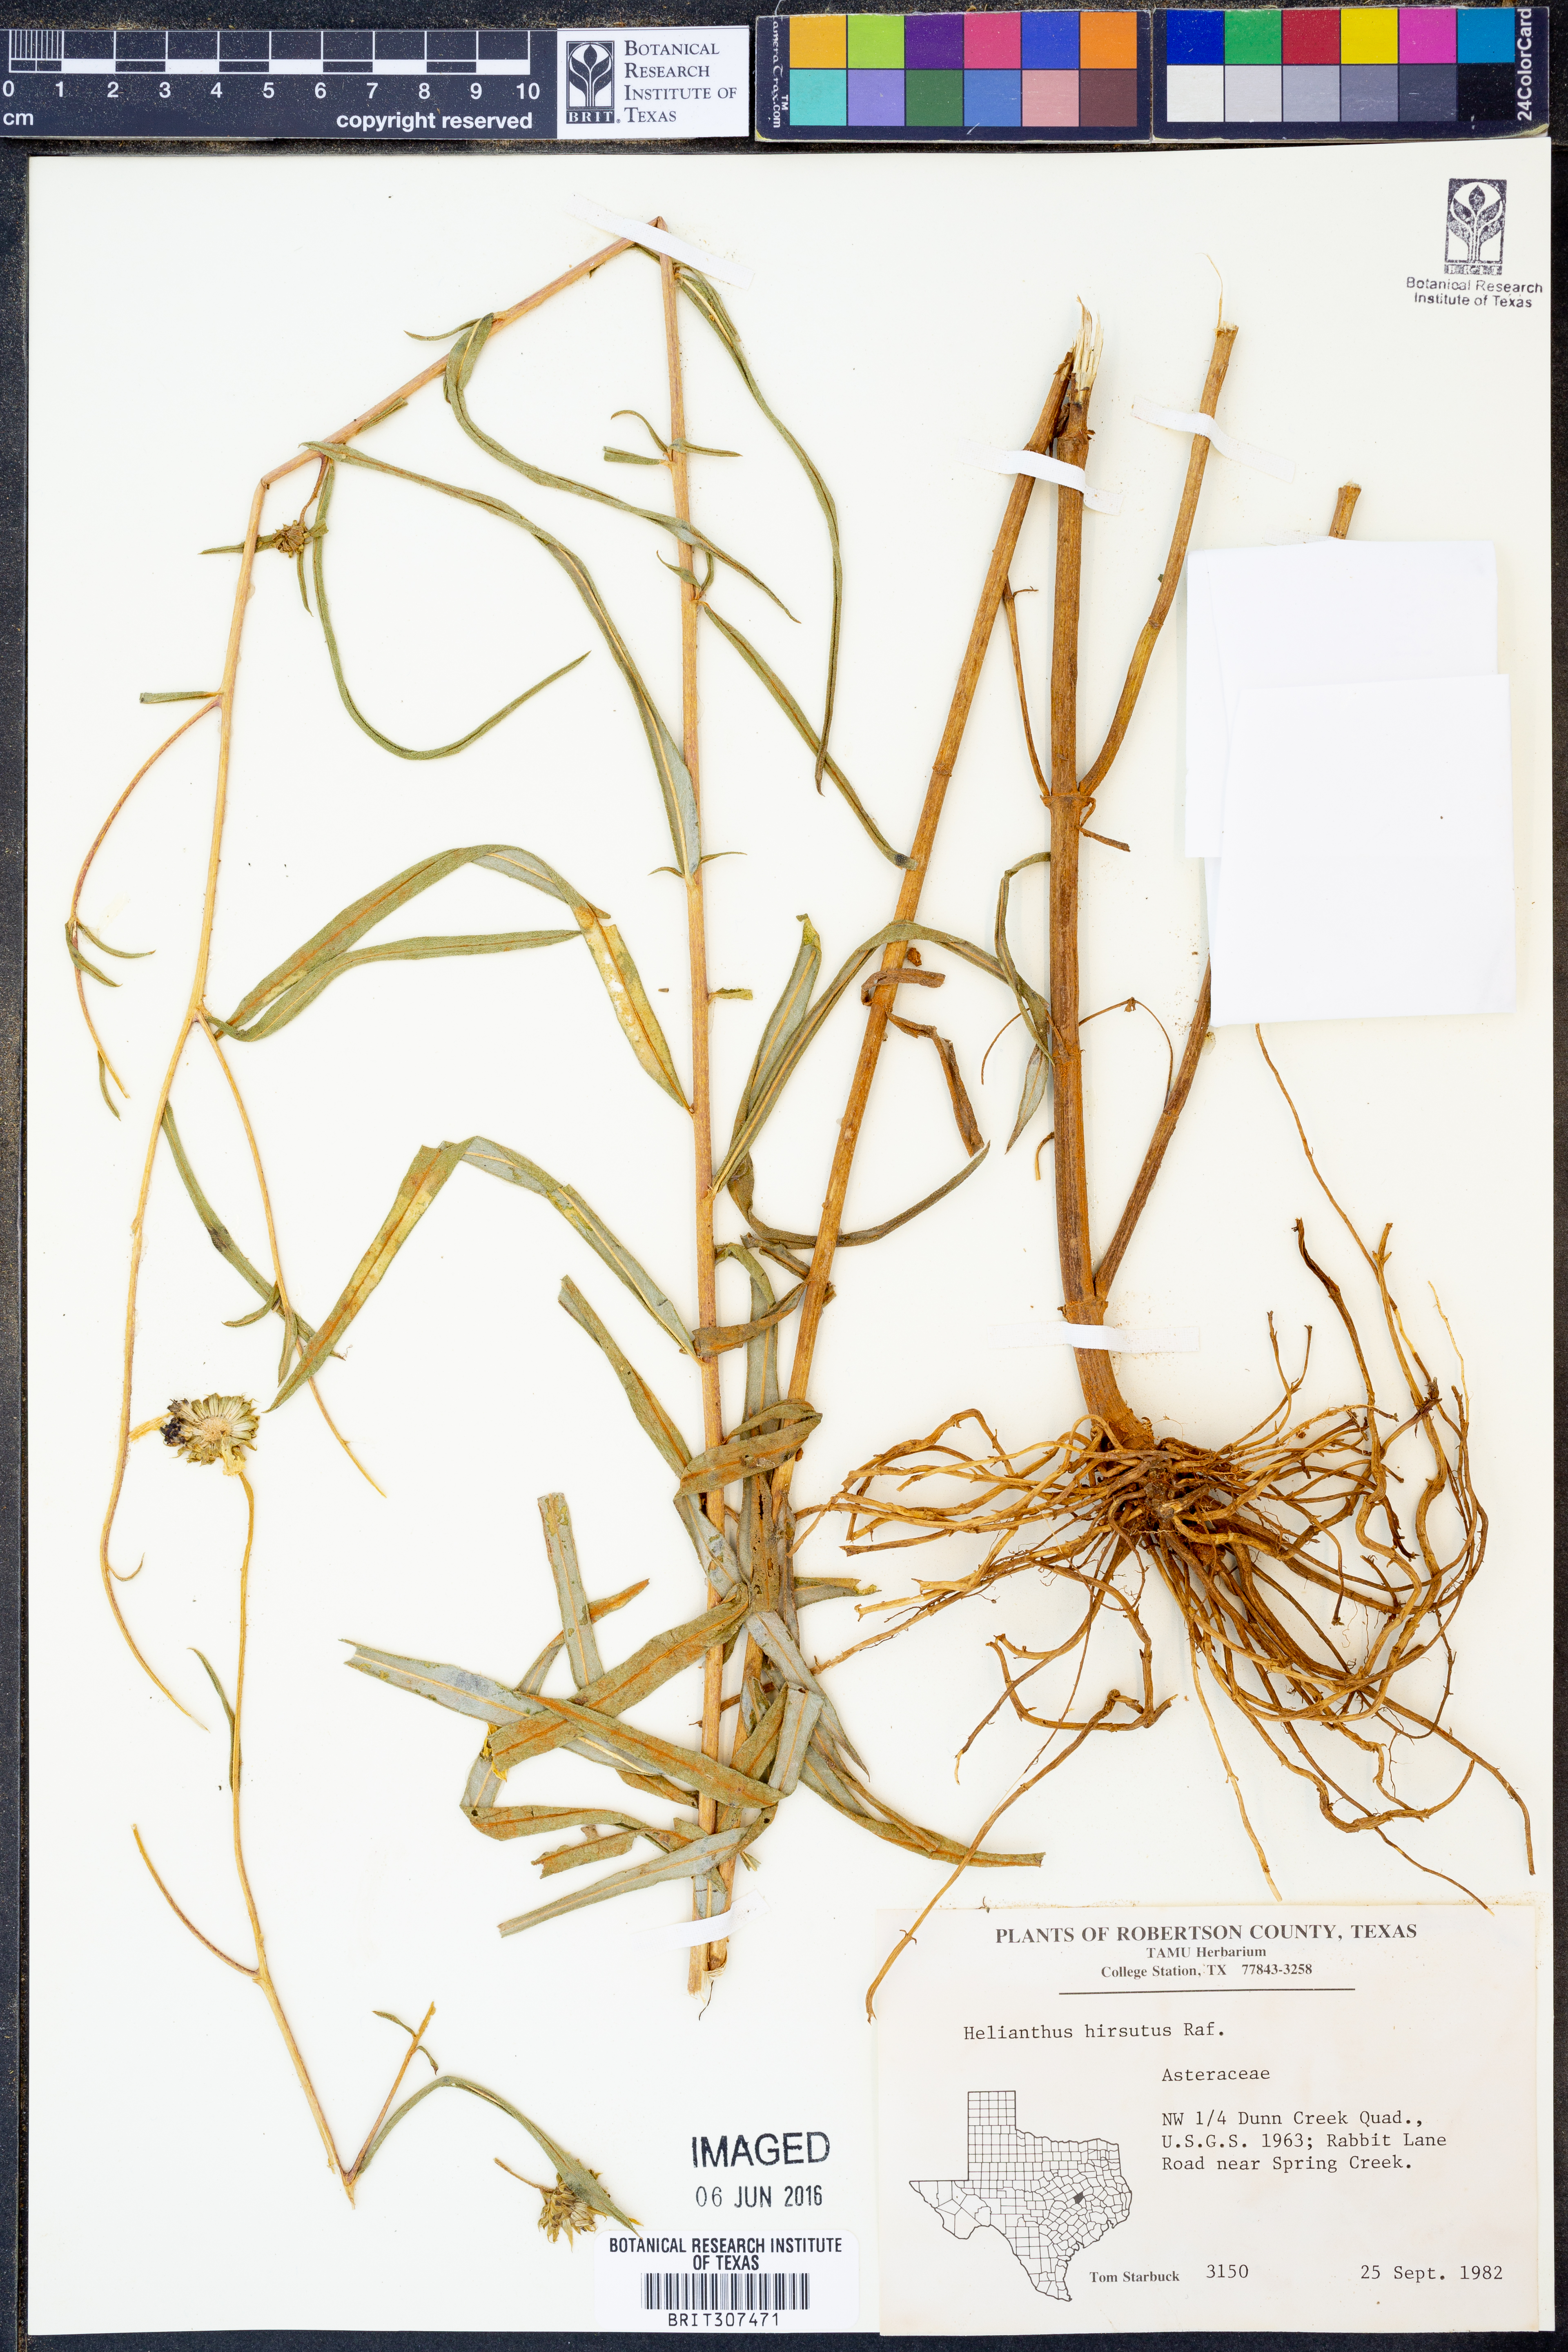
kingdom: Plantae
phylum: Tracheophyta
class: Magnoliopsida
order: Asterales
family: Asteraceae
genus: Helianthus
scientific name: Helianthus hirsutus
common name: Hairy sunflower
